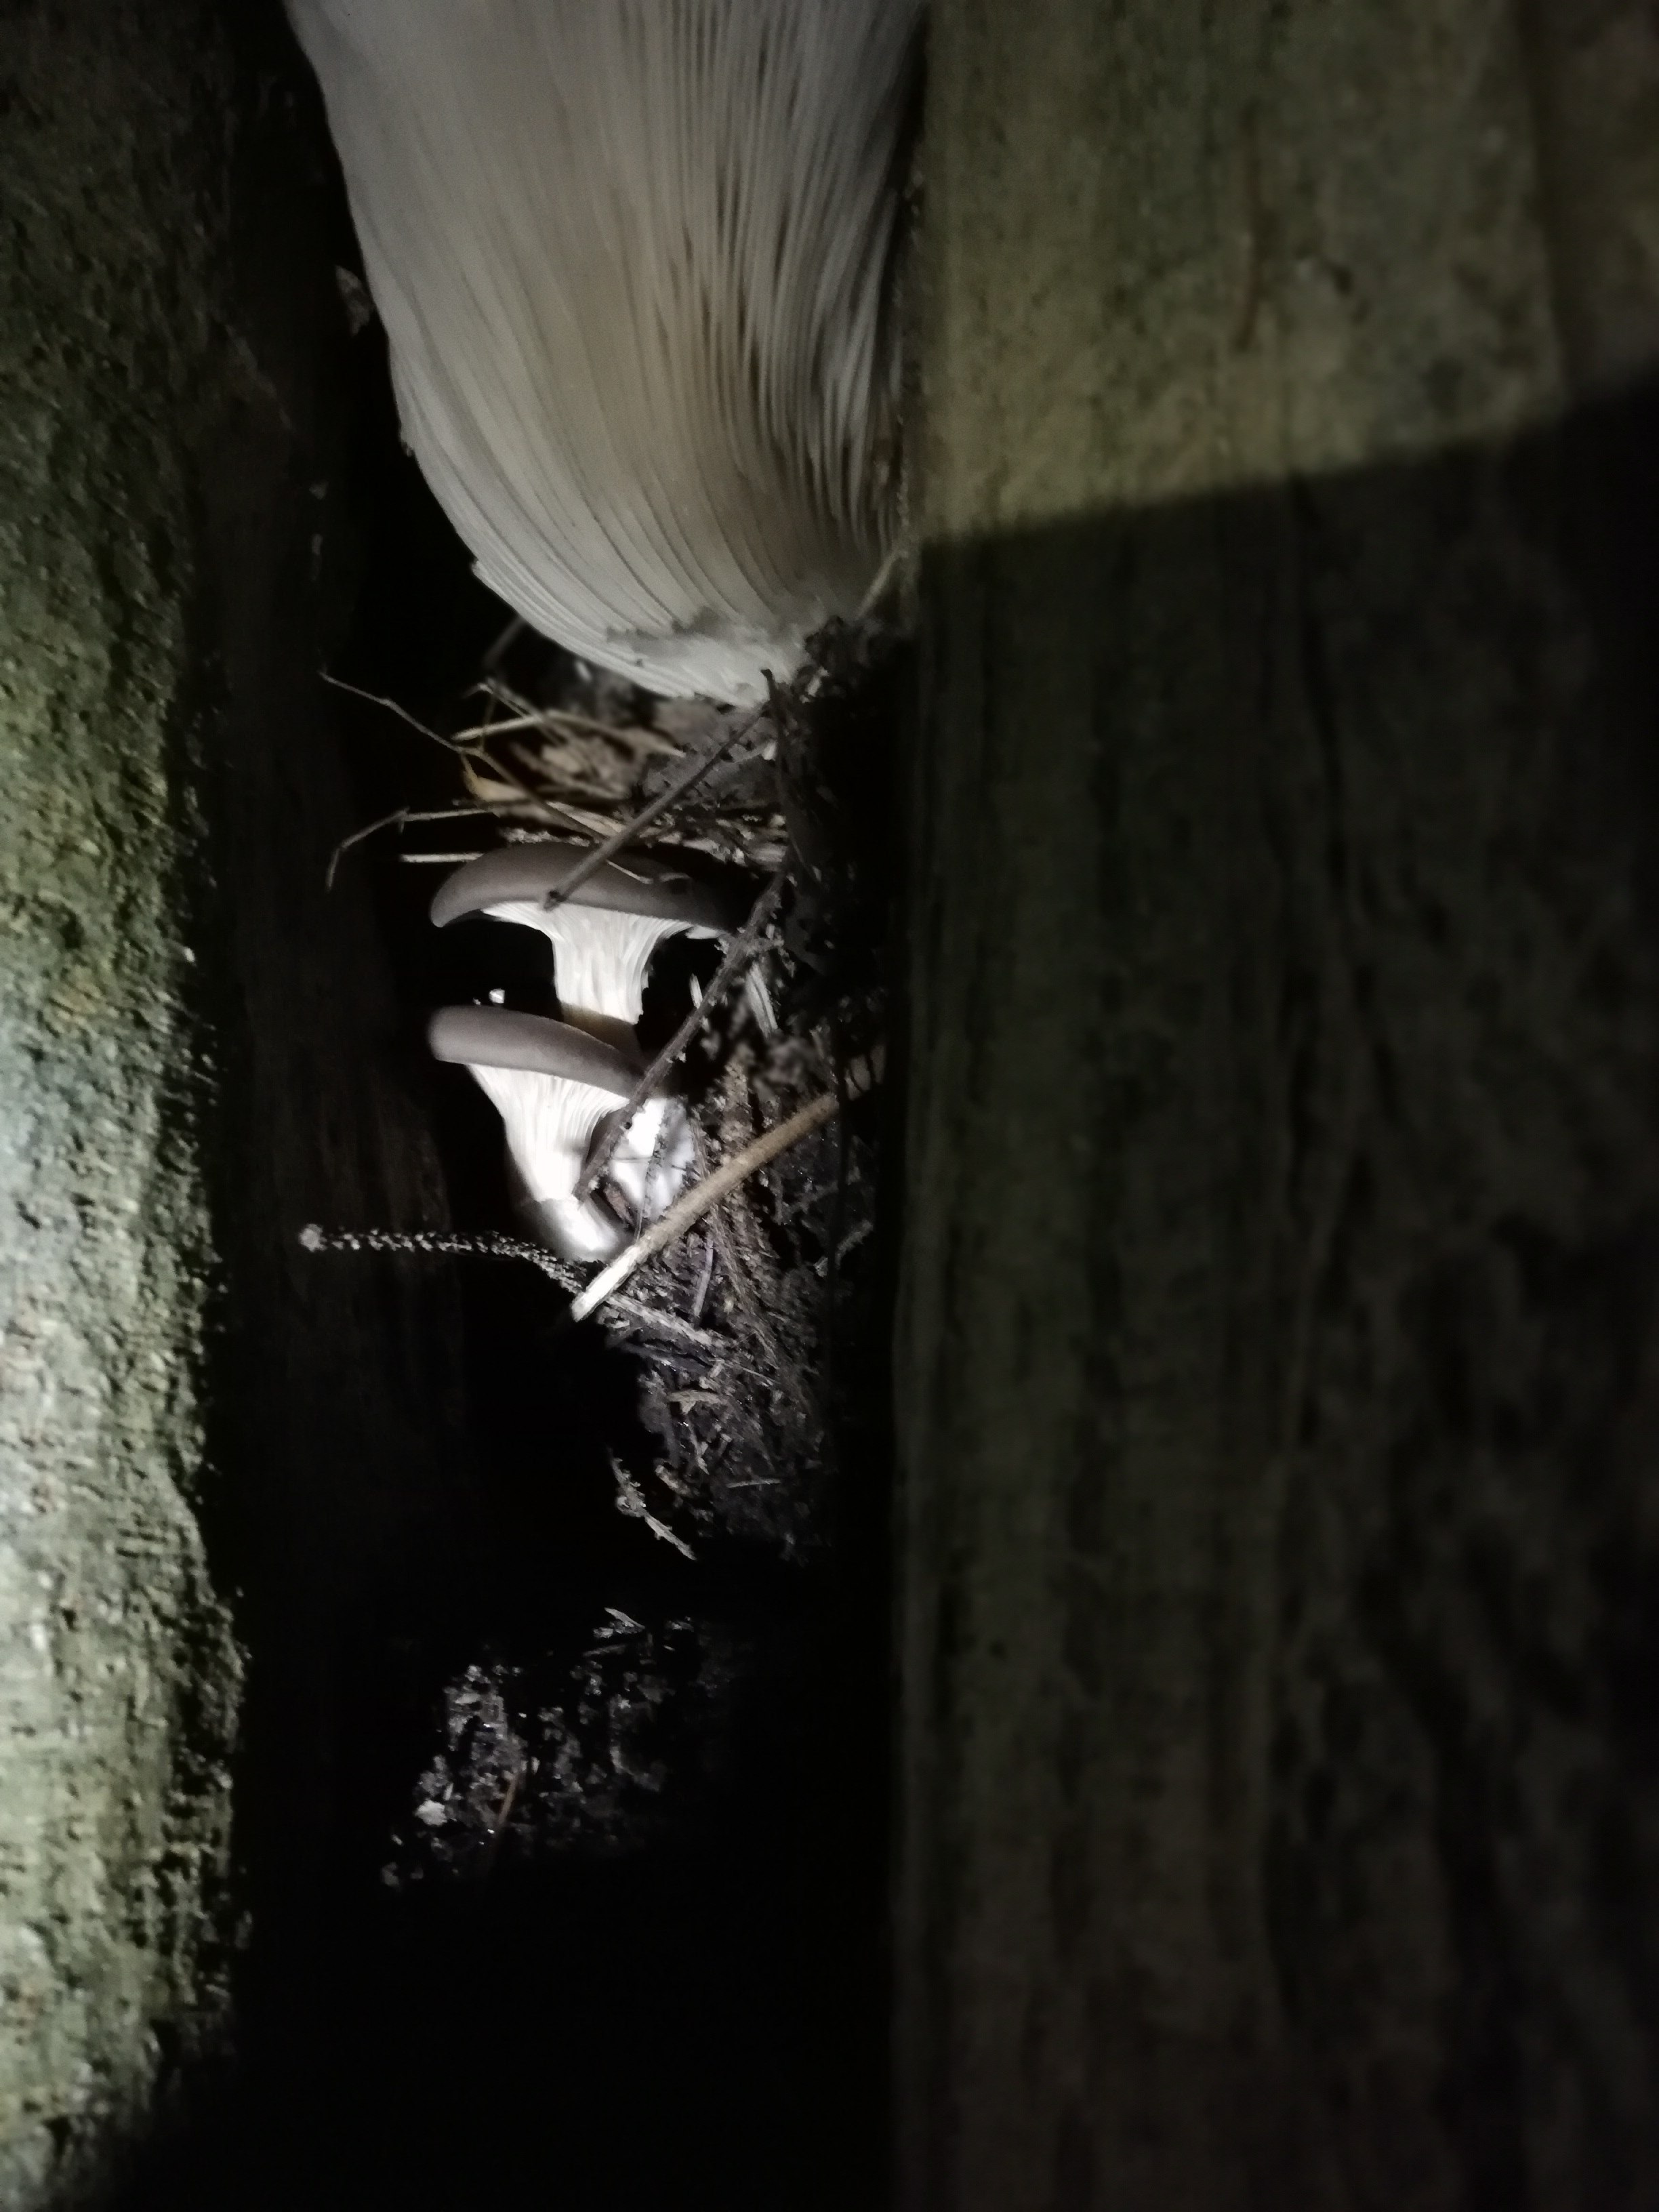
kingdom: Fungi
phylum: Basidiomycota
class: Agaricomycetes
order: Agaricales
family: Pleurotaceae
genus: Pleurotus
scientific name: Pleurotus ostreatus
